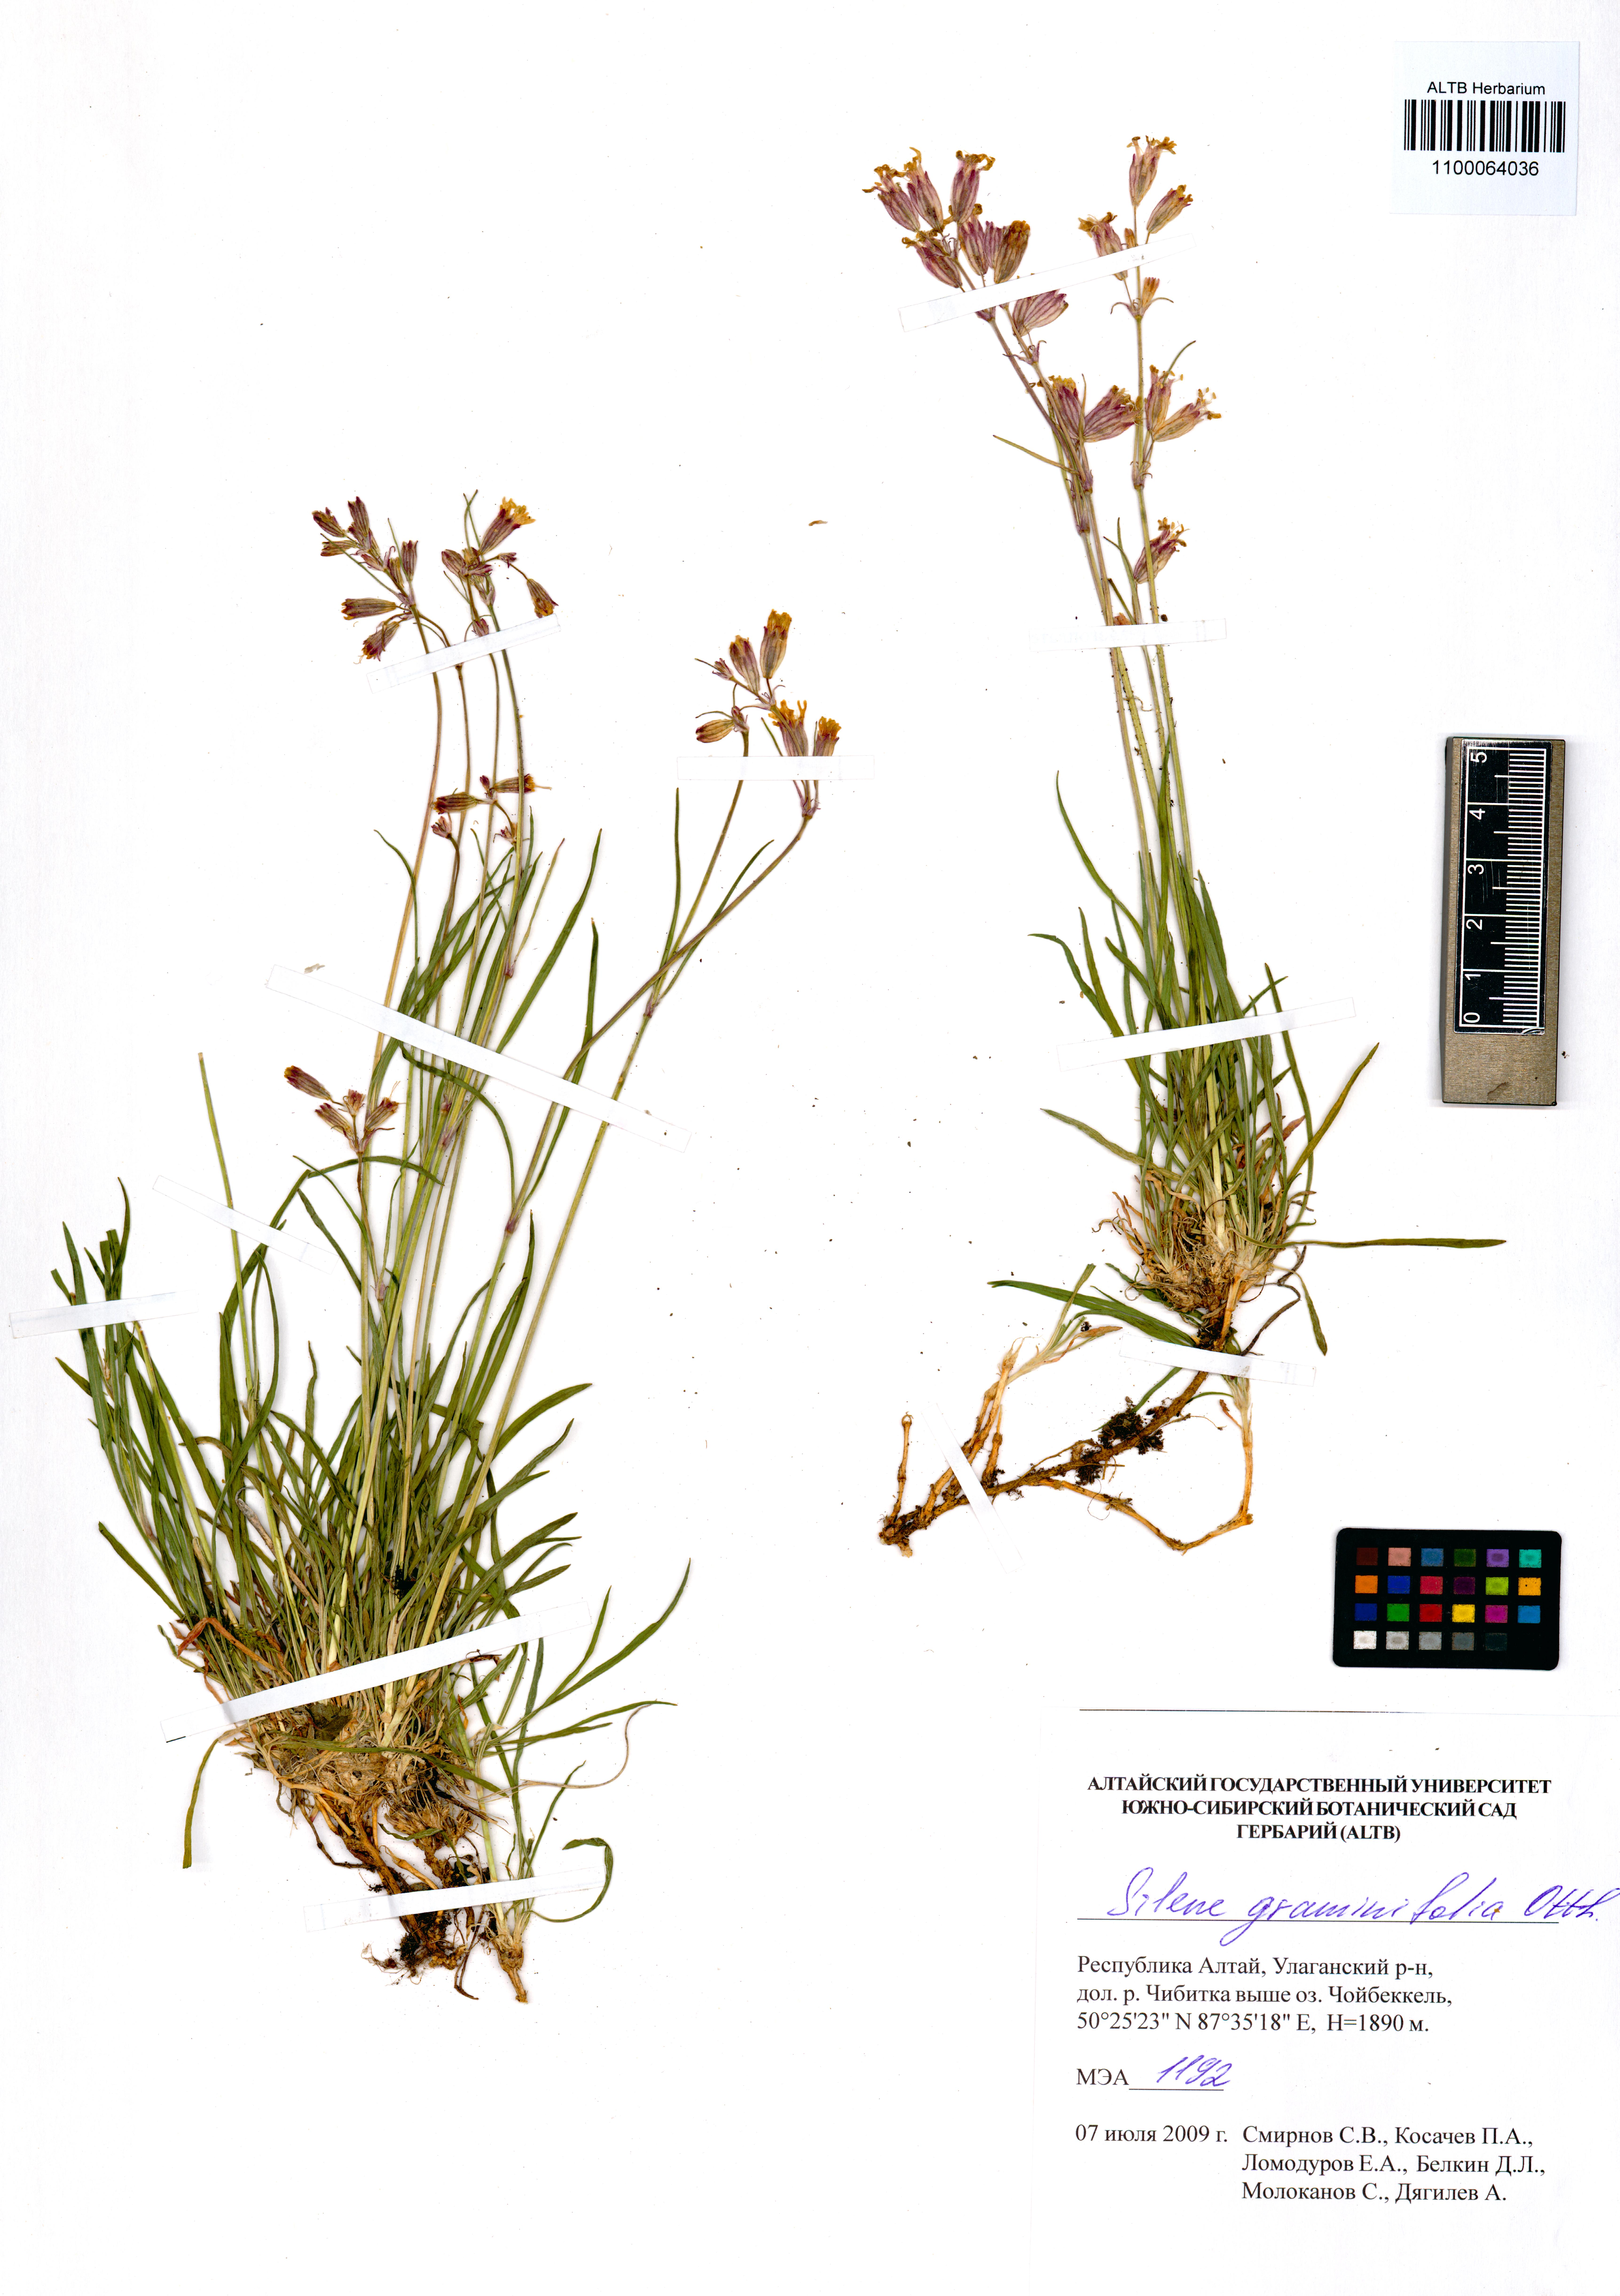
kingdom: Plantae
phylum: Tracheophyta
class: Magnoliopsida
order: Caryophyllales
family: Caryophyllaceae
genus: Silene
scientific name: Silene graminifolia
